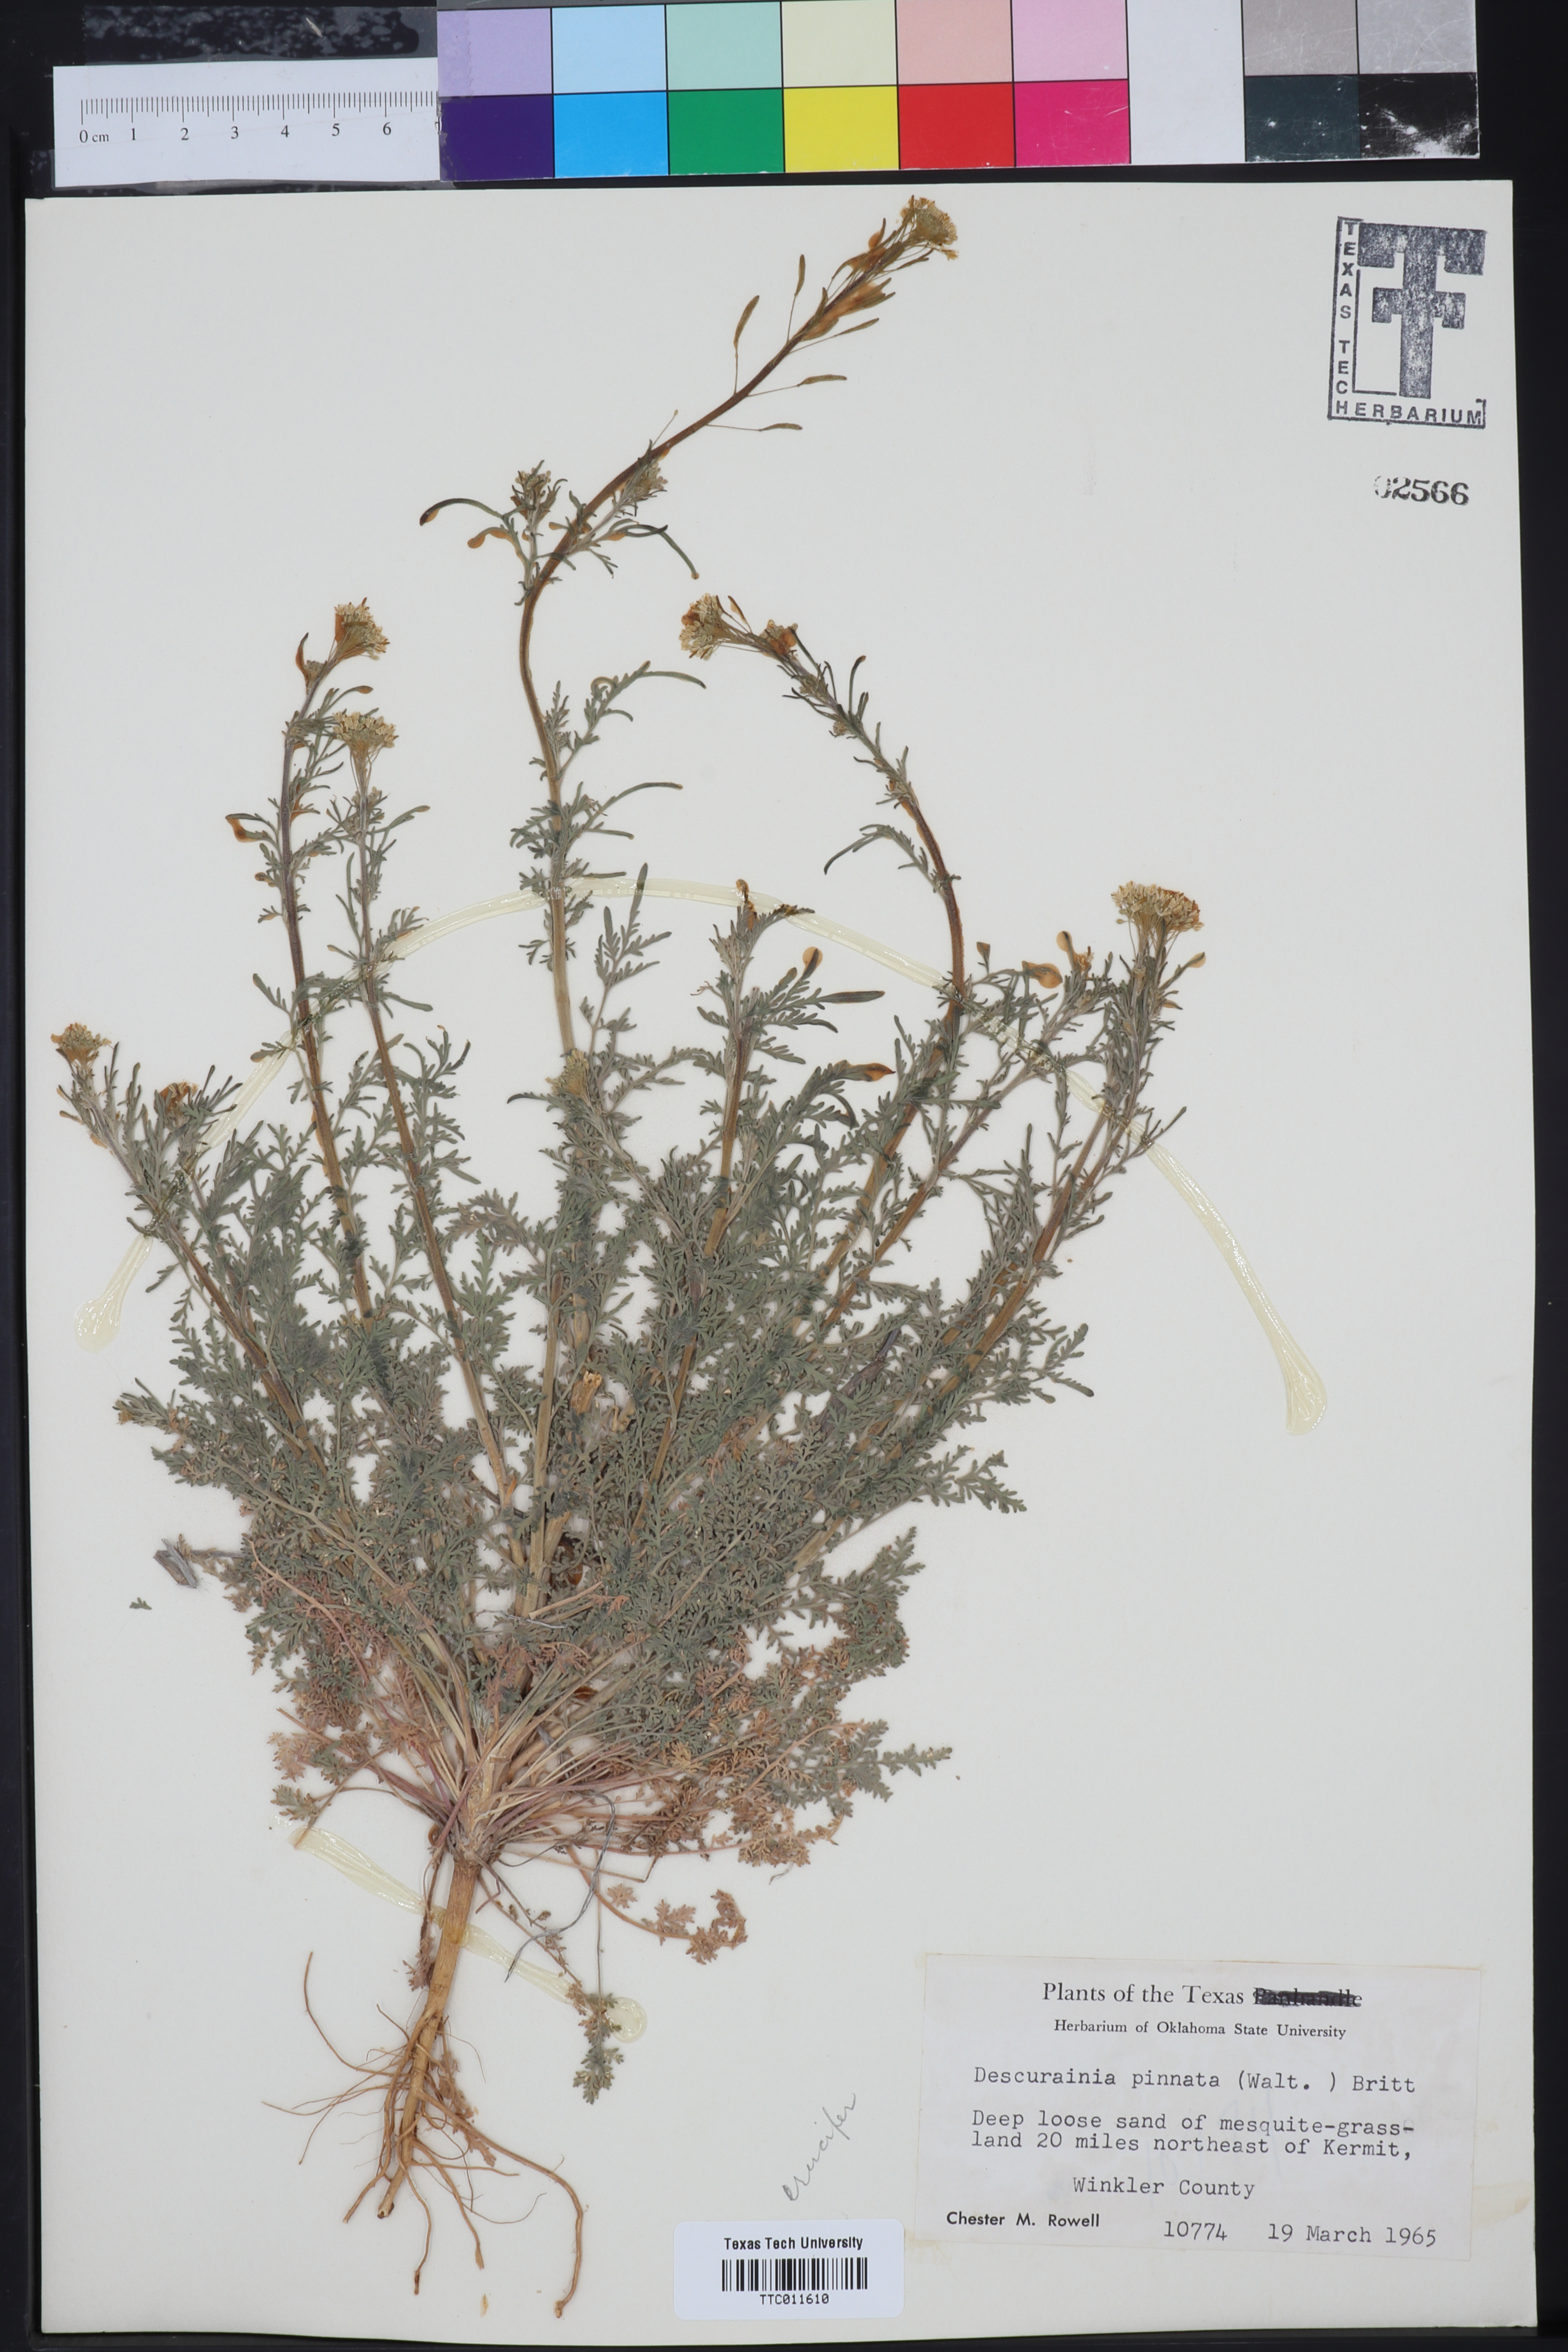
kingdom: Plantae
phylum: Tracheophyta
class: Magnoliopsida
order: Brassicales
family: Brassicaceae
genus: Descurainia
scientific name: Descurainia pinnata
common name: Western tansy mustard
